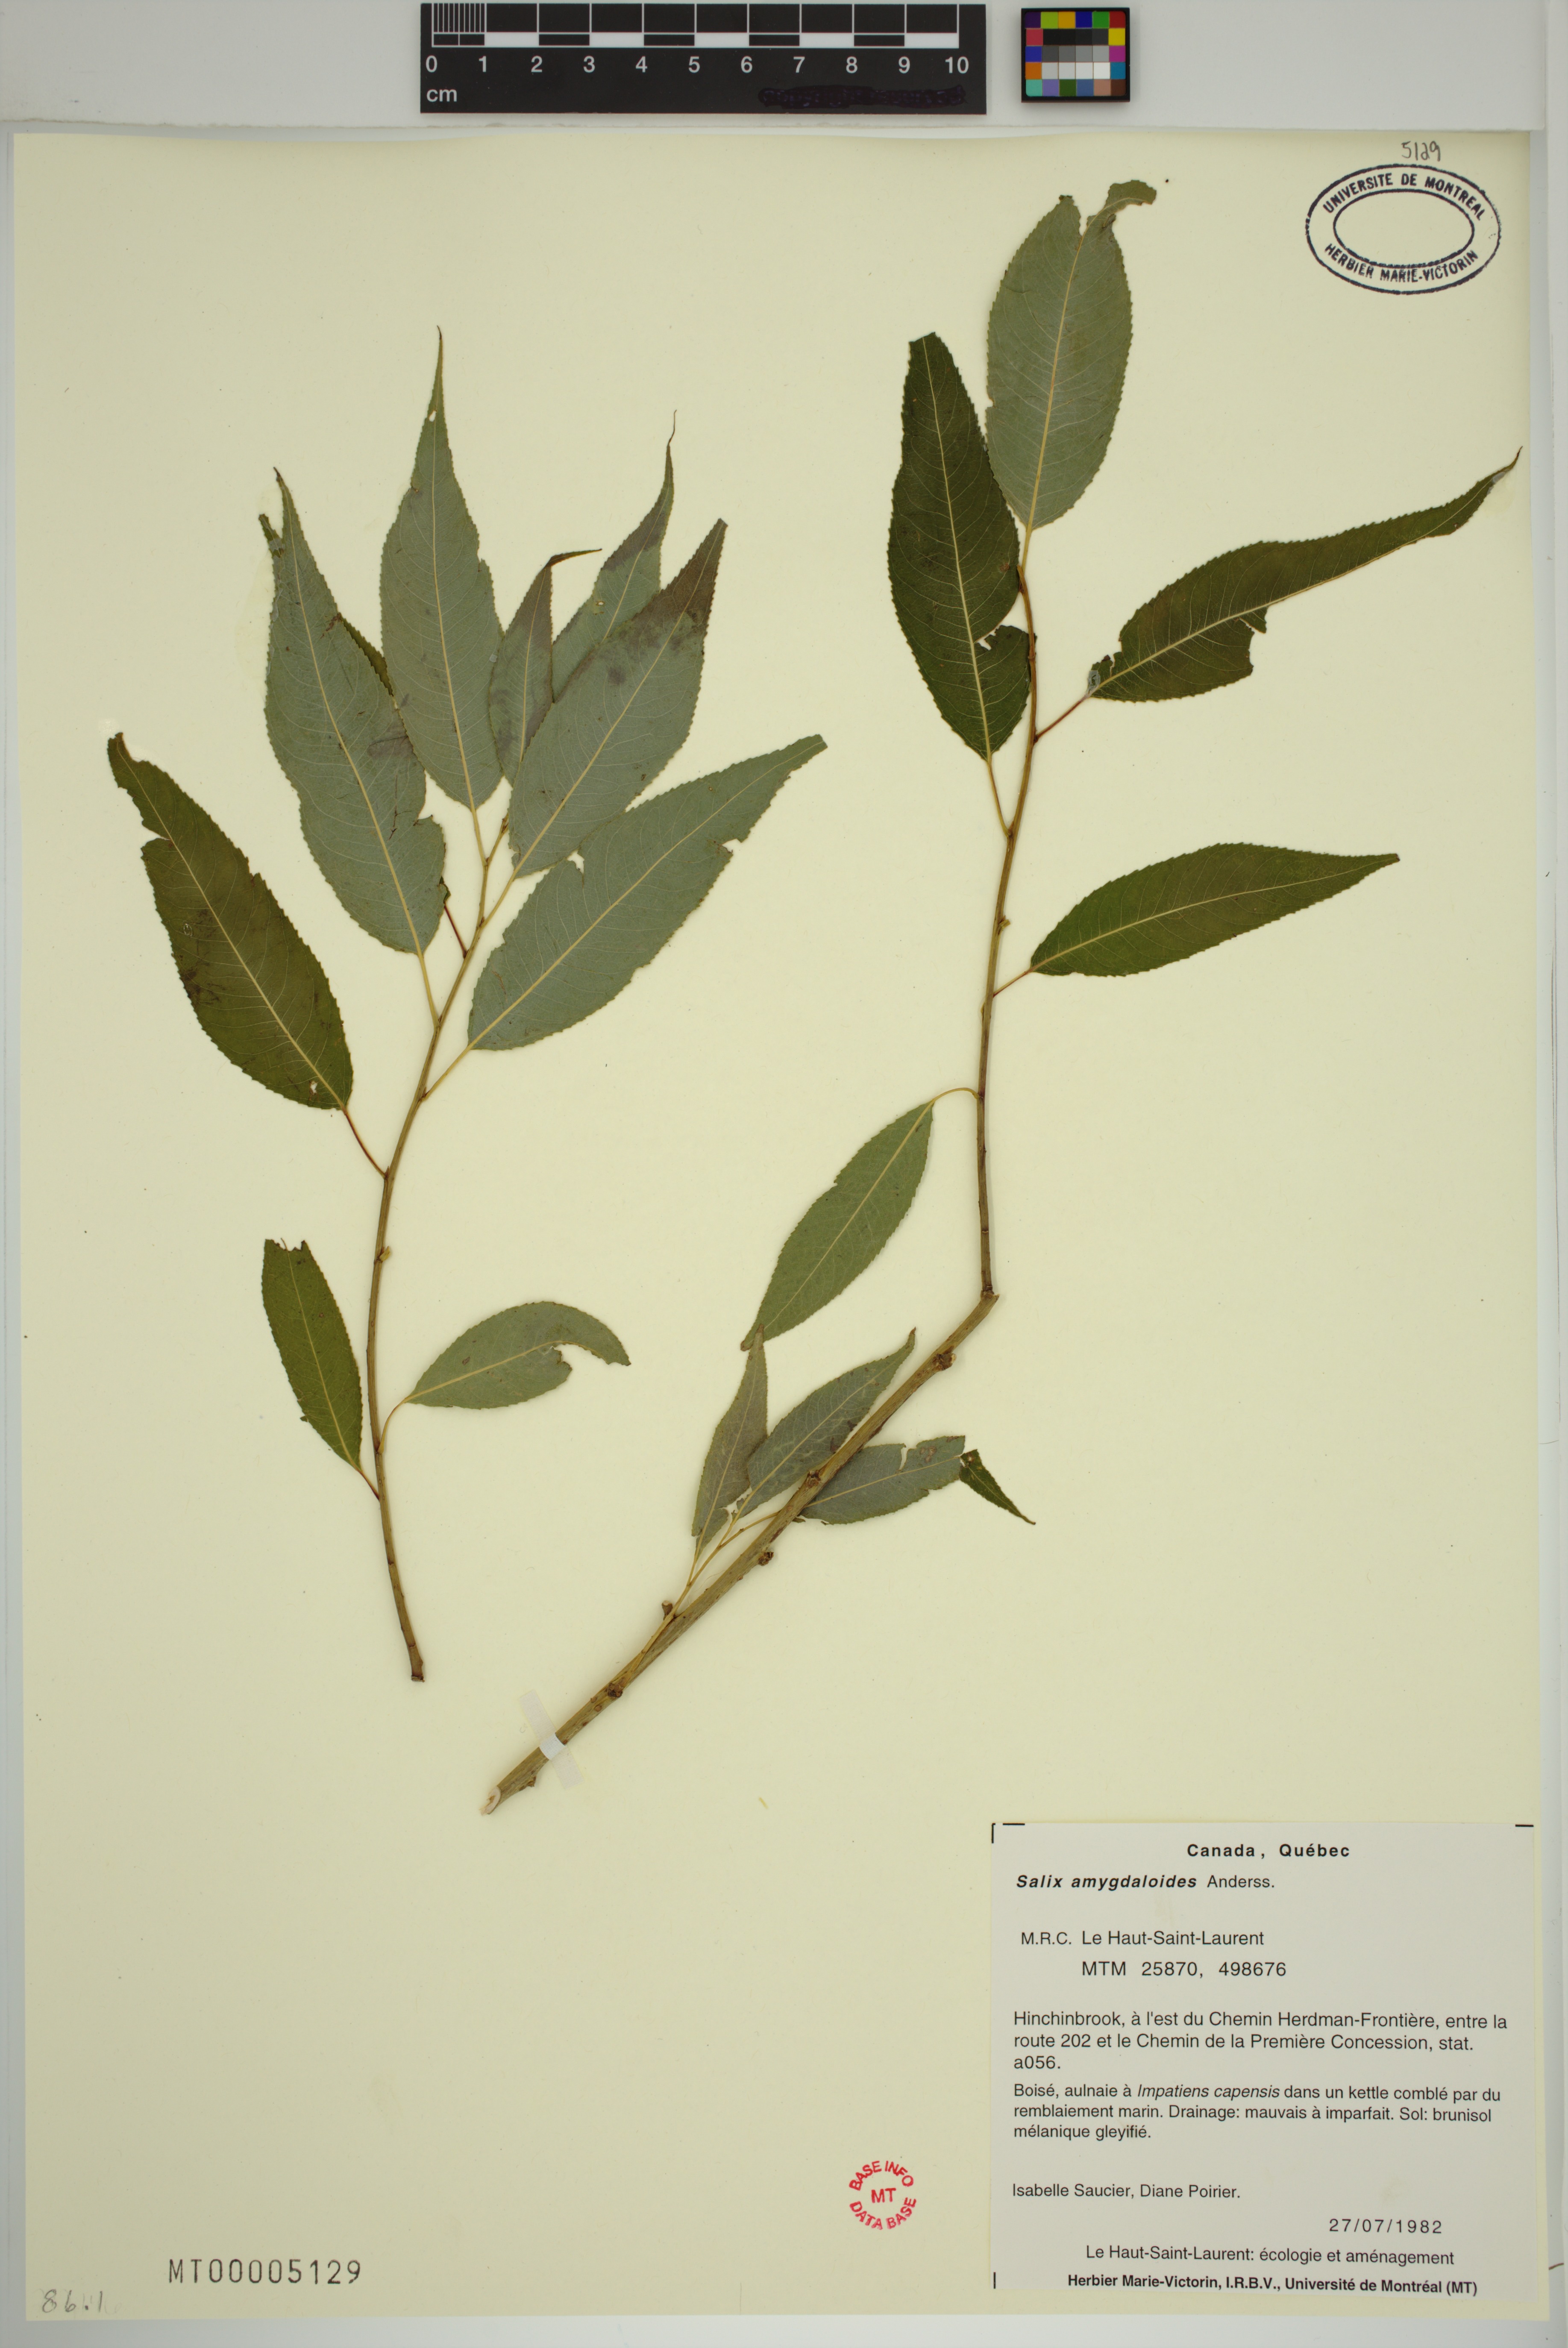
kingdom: Plantae
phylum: Tracheophyta
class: Magnoliopsida
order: Malpighiales
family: Salicaceae
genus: Salix
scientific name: Salix amygdaloides
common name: Peach leaf willow
